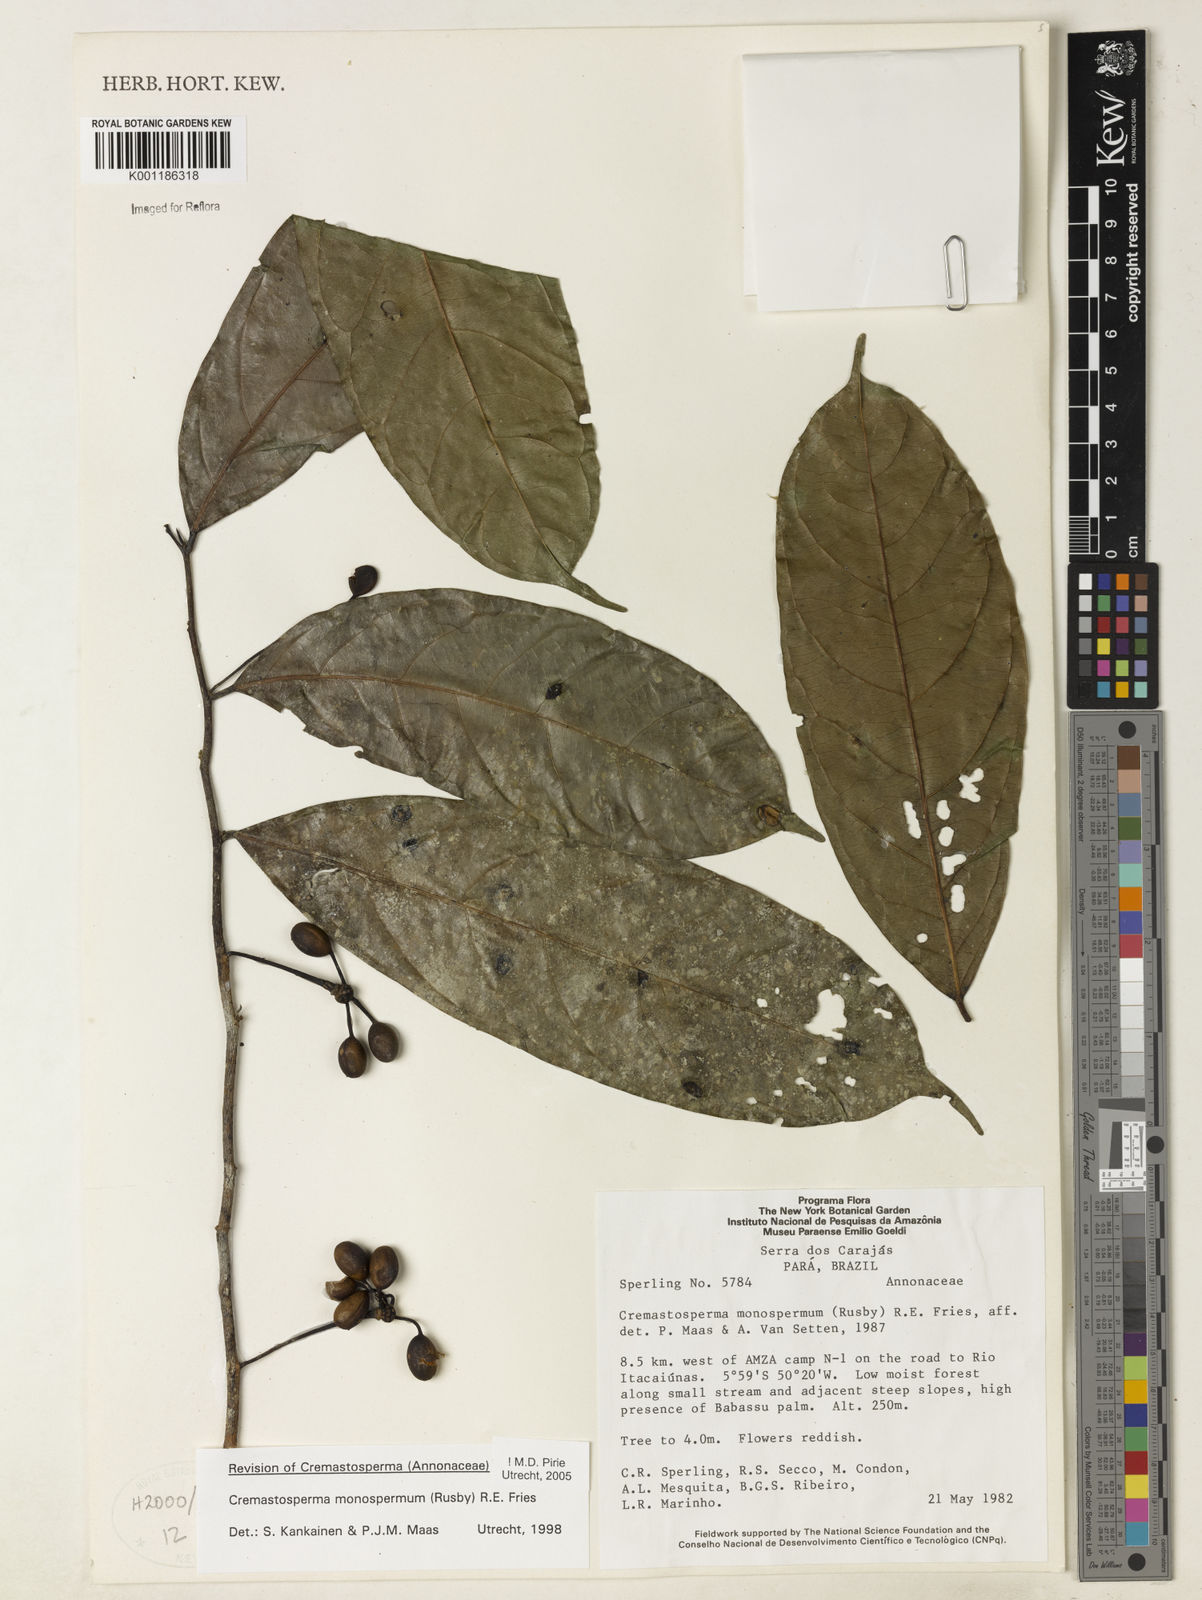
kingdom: Plantae
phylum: Tracheophyta
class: Magnoliopsida
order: Magnoliales
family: Annonaceae
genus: Cremastosperma
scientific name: Cremastosperma monospermum
